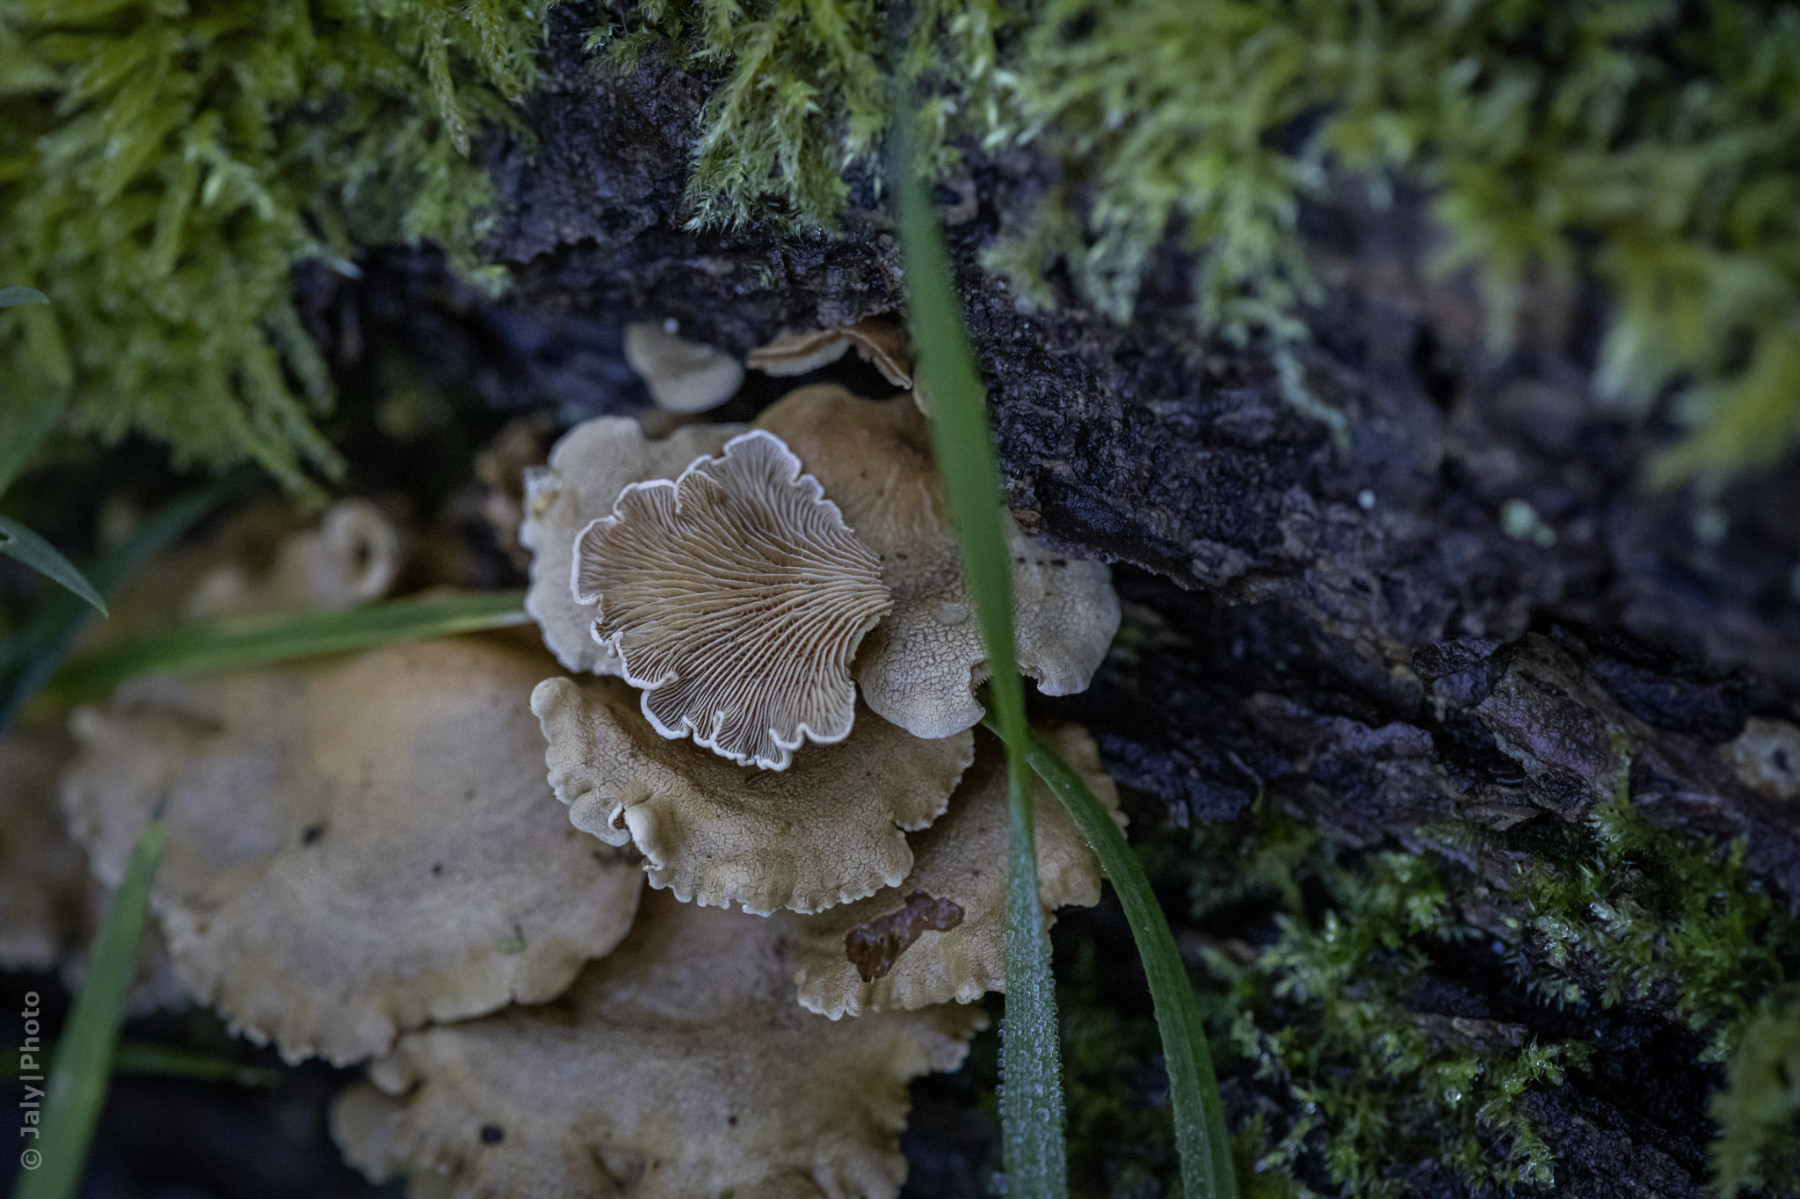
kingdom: Fungi
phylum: Basidiomycota
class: Agaricomycetes
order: Agaricales
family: Mycenaceae
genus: Panellus
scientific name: Panellus stipticus
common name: kliddet epaulethat
